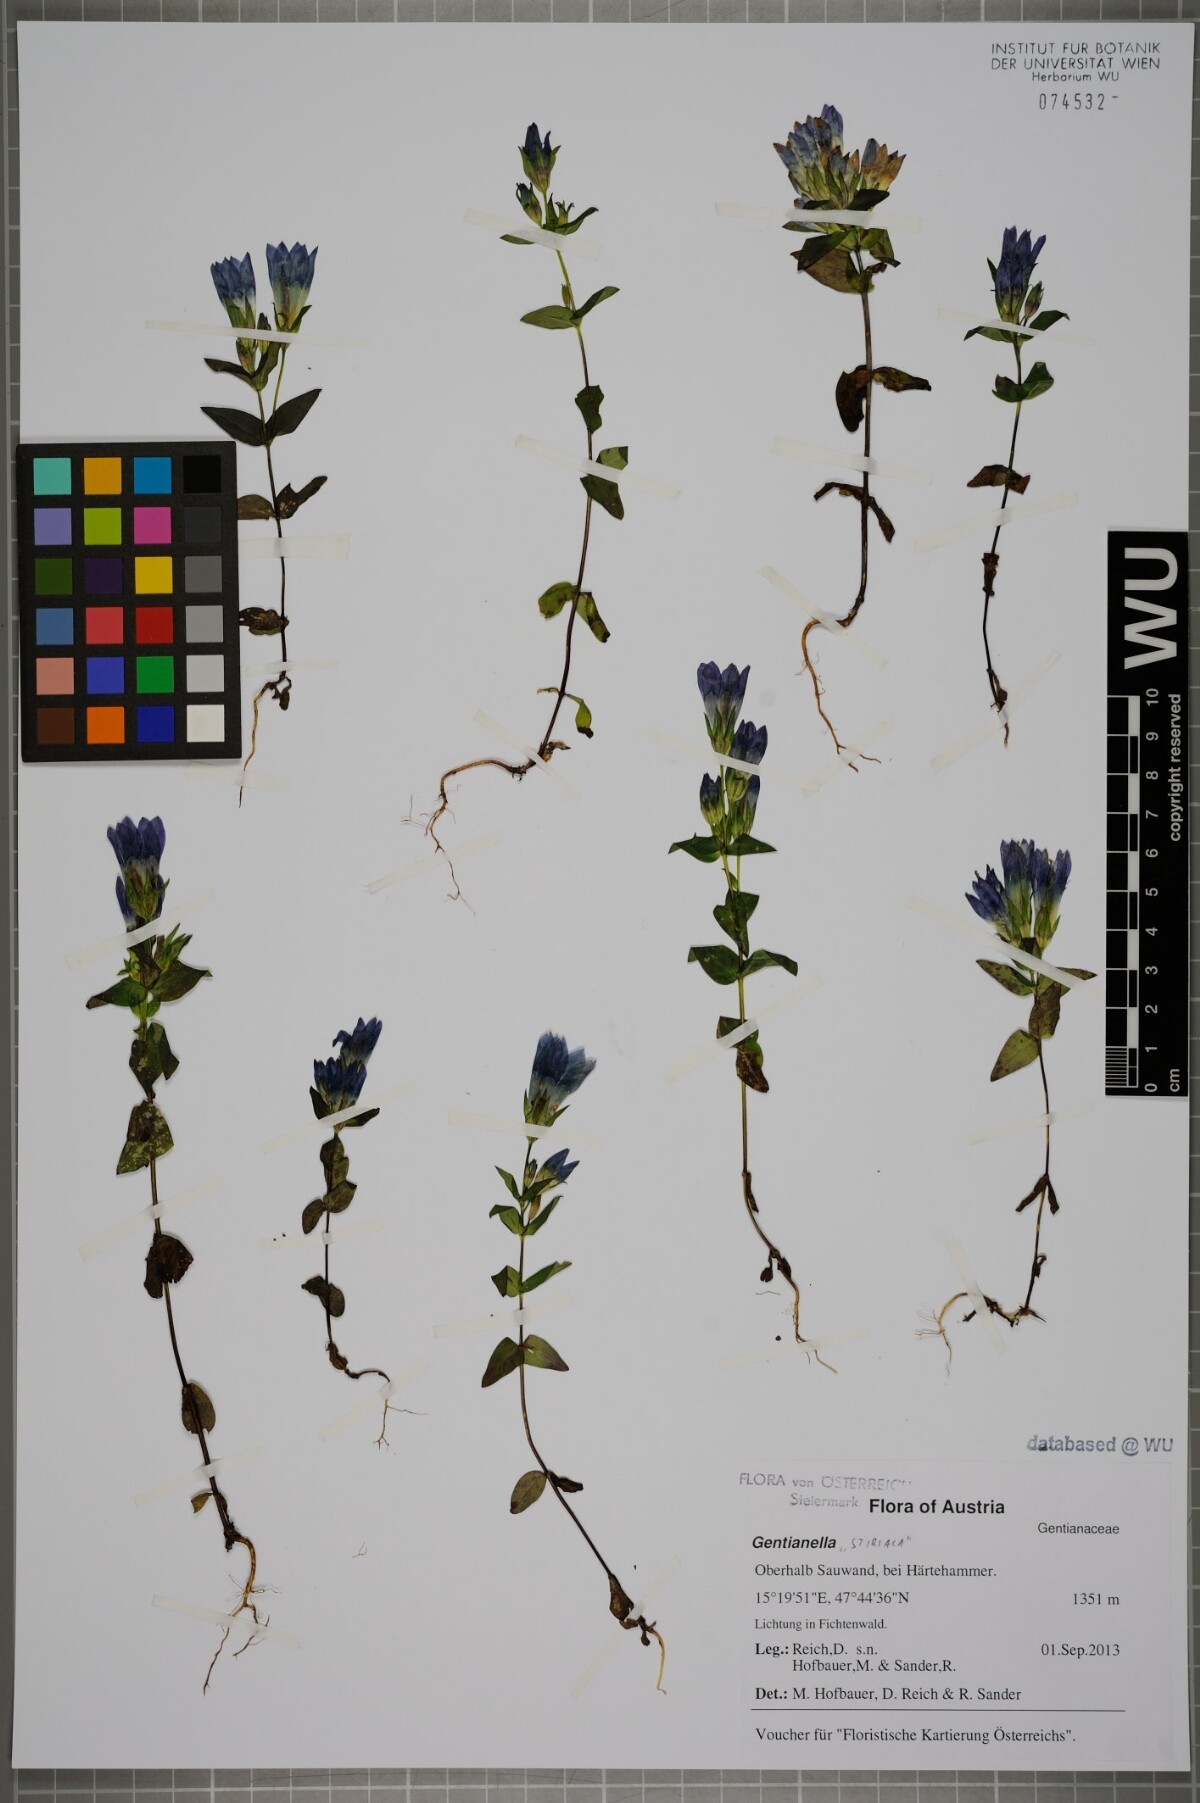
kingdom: Plantae
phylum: Tracheophyta
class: Magnoliopsida
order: Gentianales
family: Gentianaceae
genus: Gentianella
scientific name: Gentianella
